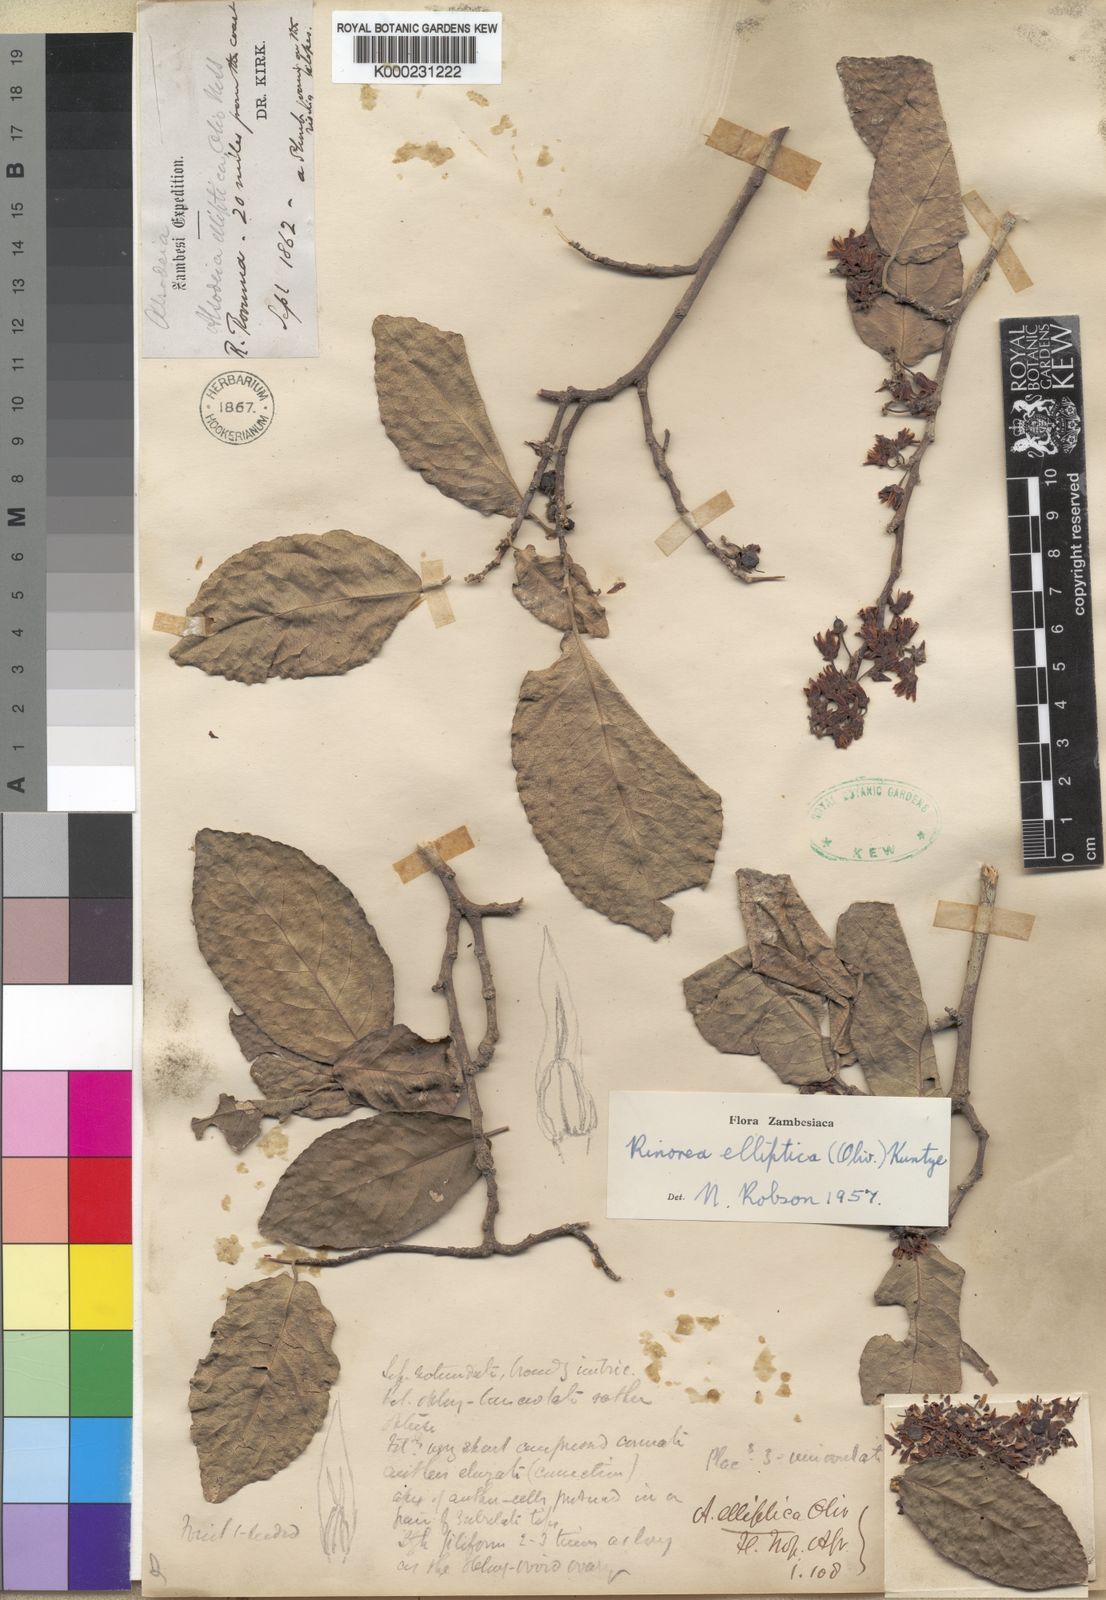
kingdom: Plantae
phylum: Tracheophyta
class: Magnoliopsida
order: Malpighiales
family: Violaceae
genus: Rinorea
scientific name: Rinorea elliptica
